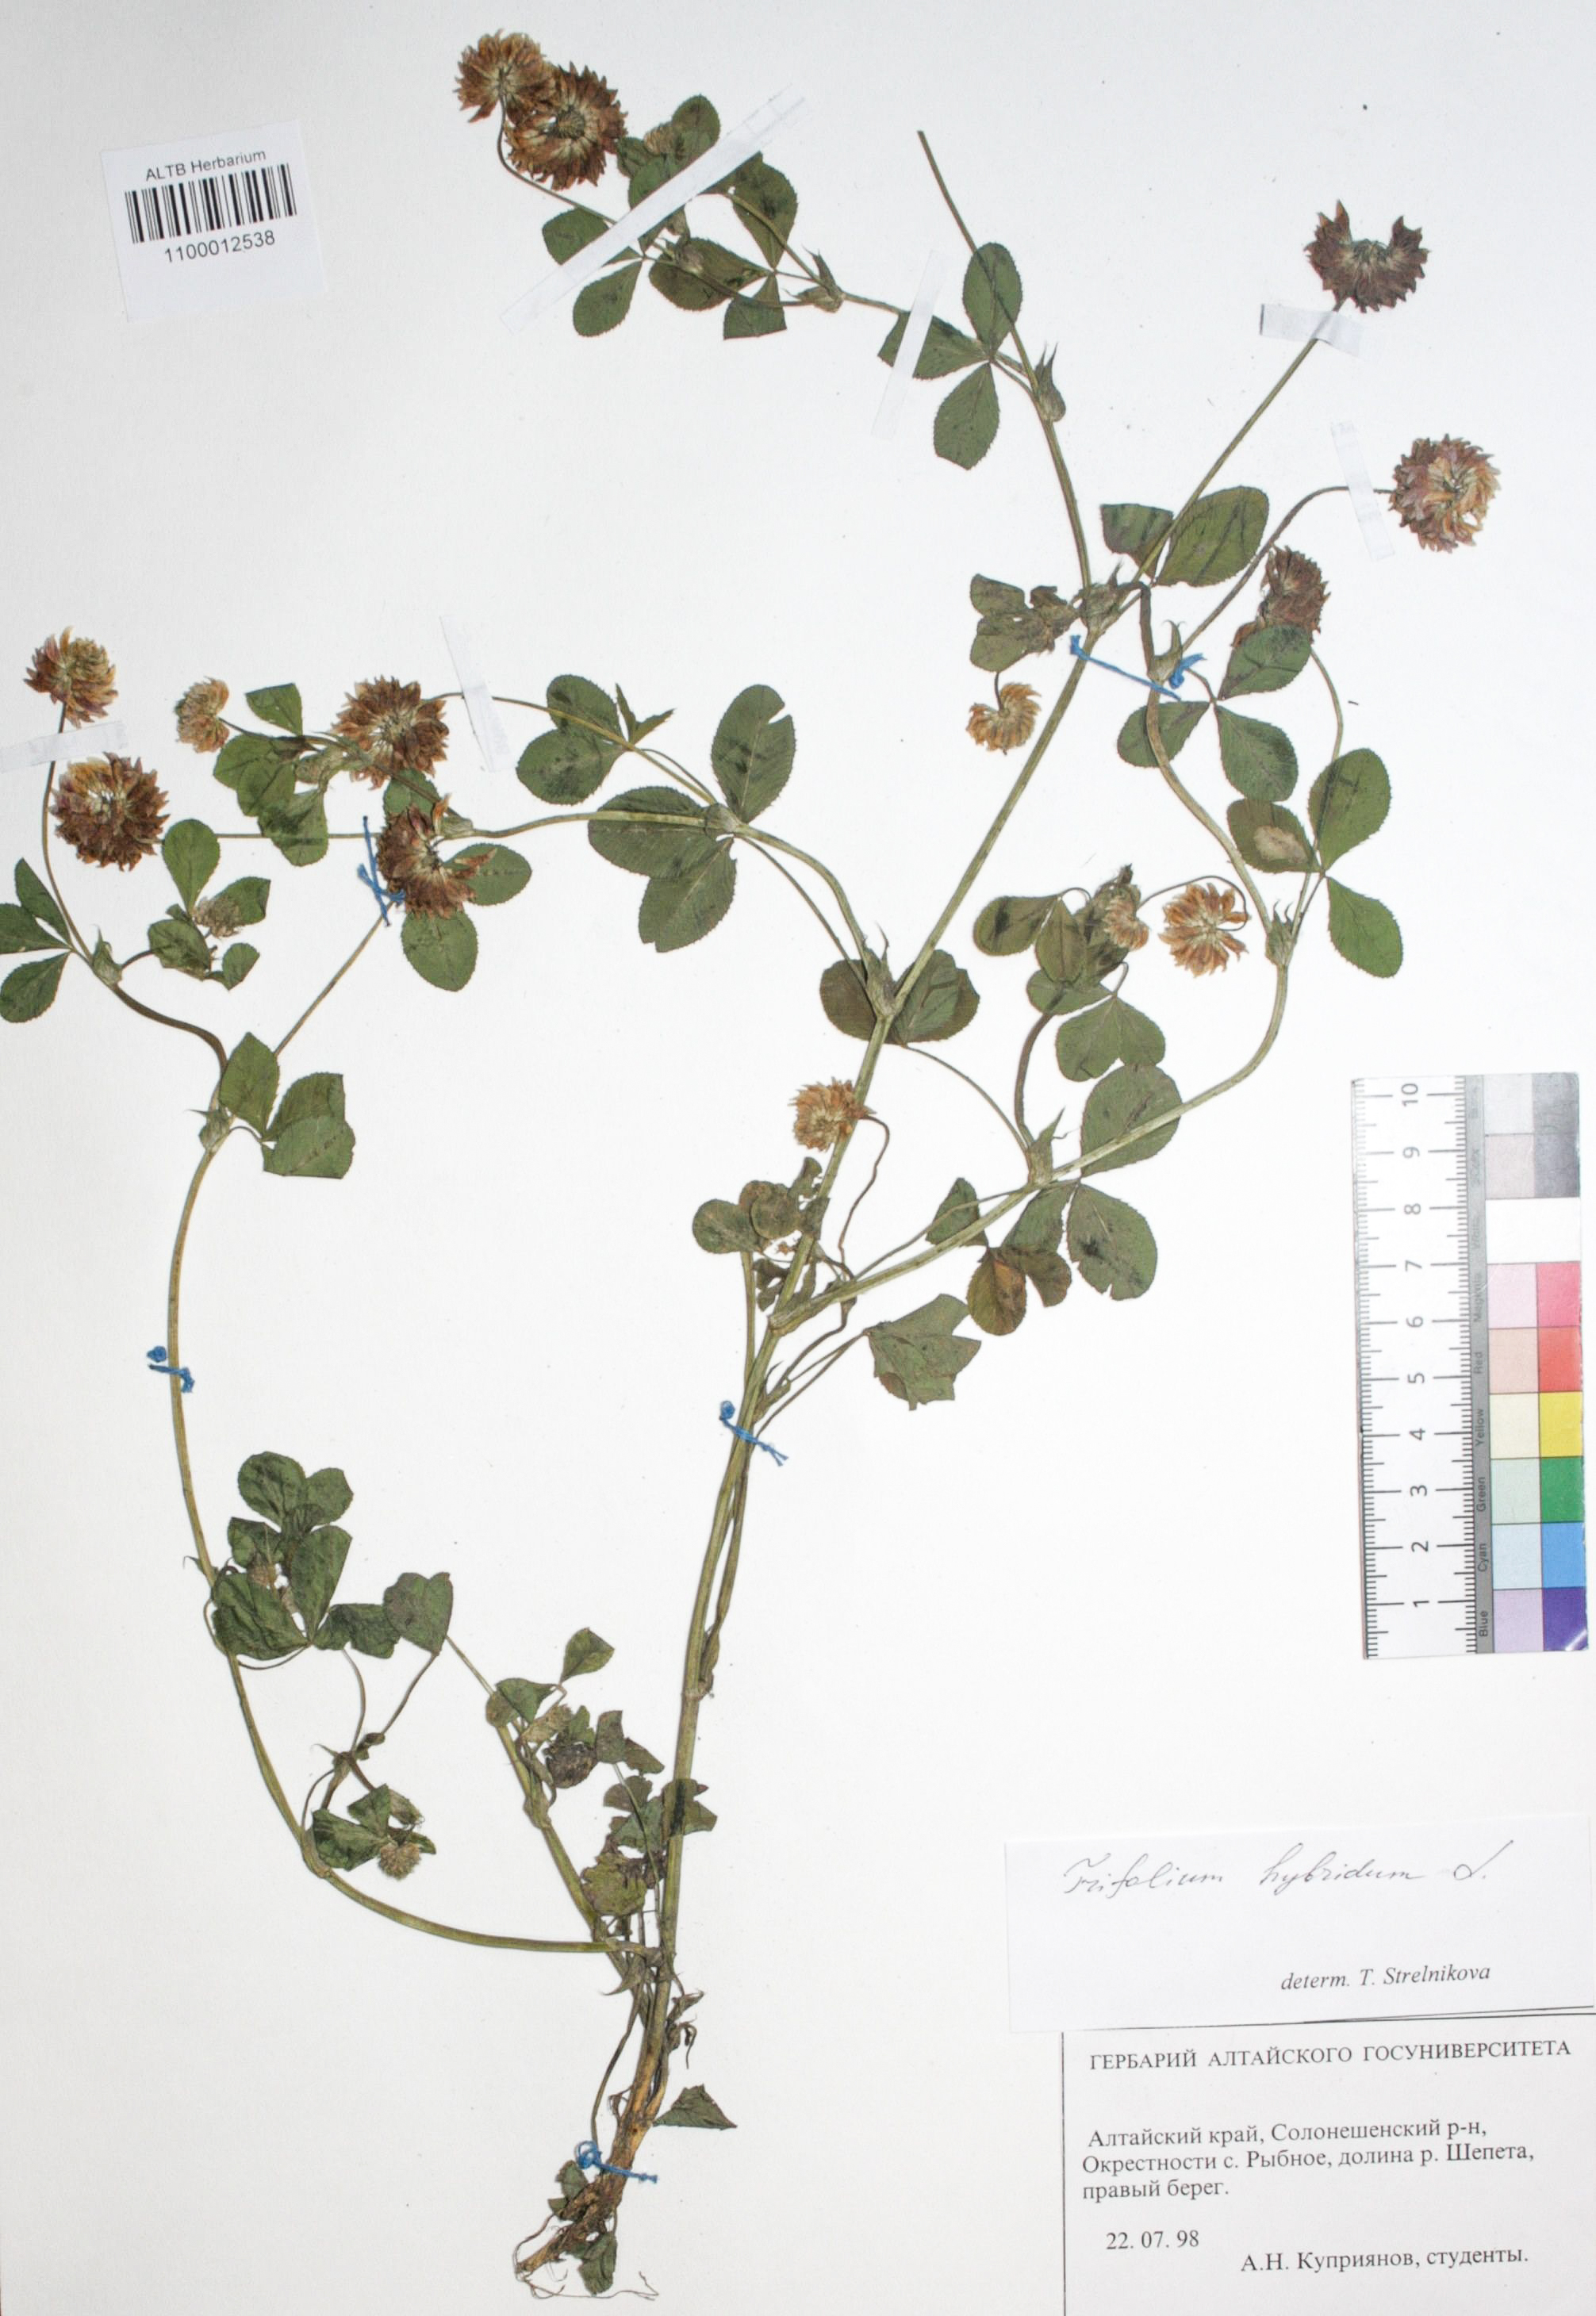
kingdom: Plantae
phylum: Tracheophyta
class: Magnoliopsida
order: Fabales
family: Fabaceae
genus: Trifolium
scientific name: Trifolium hybridum
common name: Alsike clover
